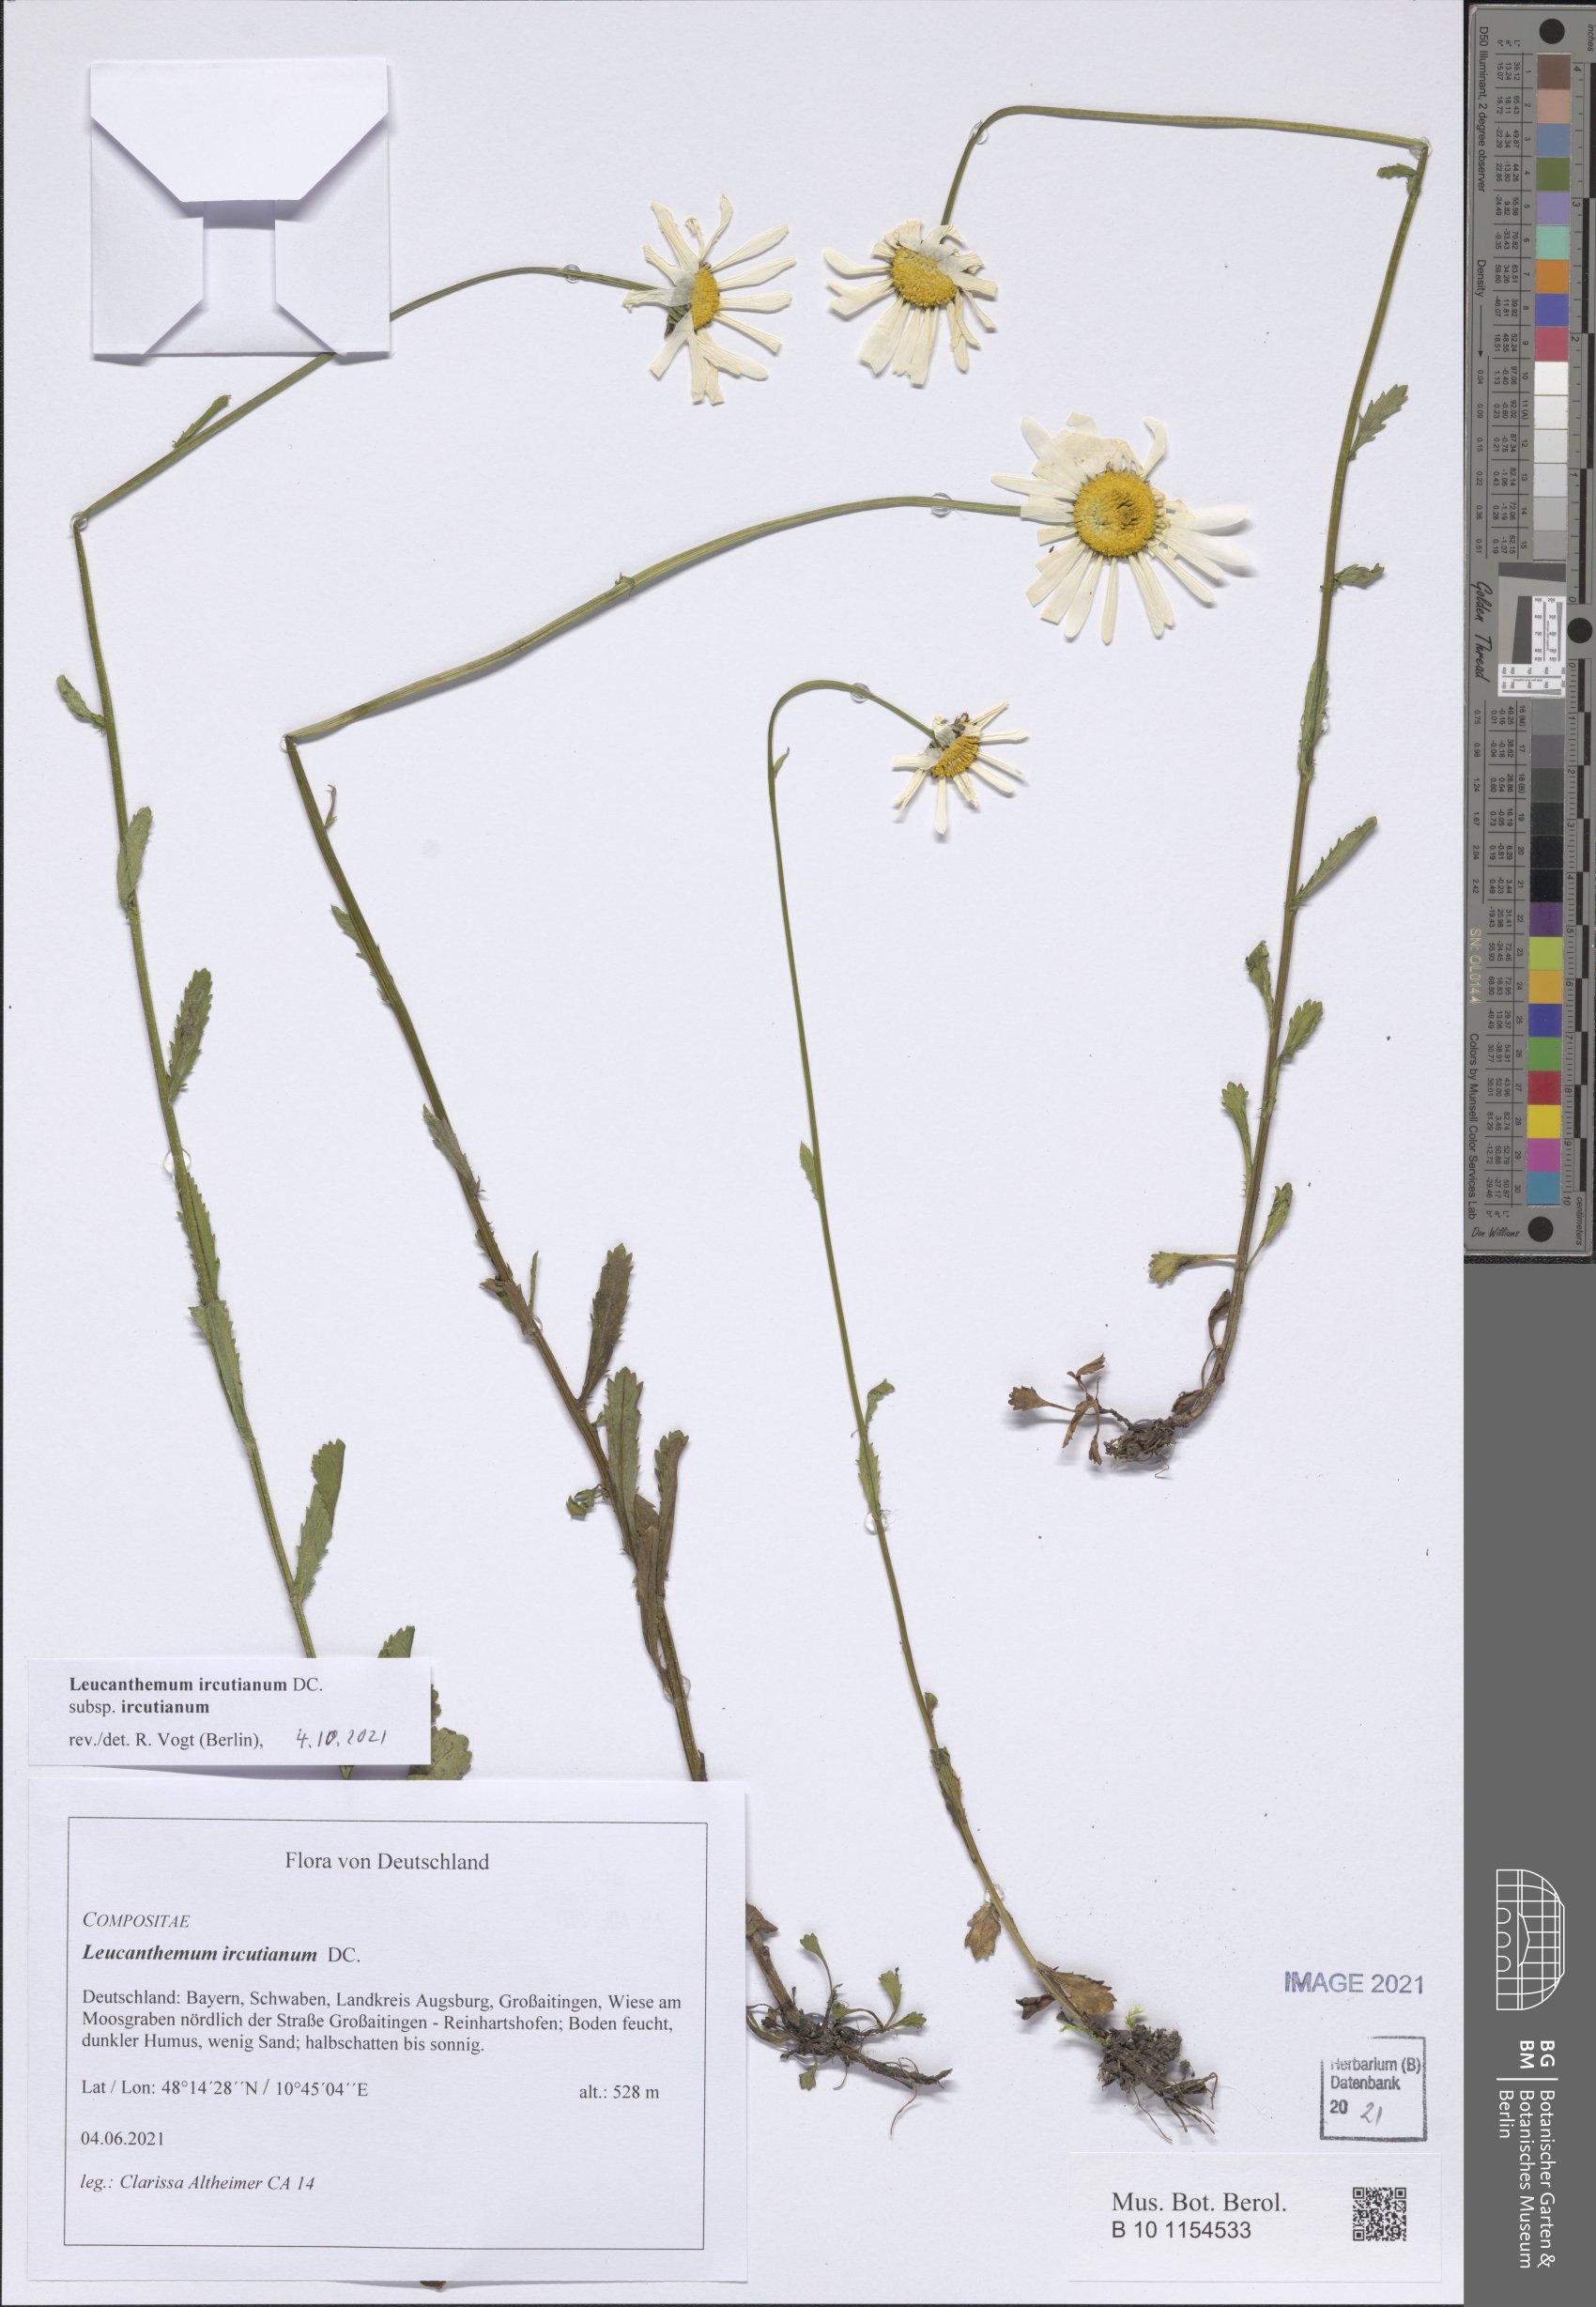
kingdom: Plantae
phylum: Tracheophyta
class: Magnoliopsida
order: Asterales
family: Asteraceae
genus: Leucanthemum
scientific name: Leucanthemum ircutianum
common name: Daisy
